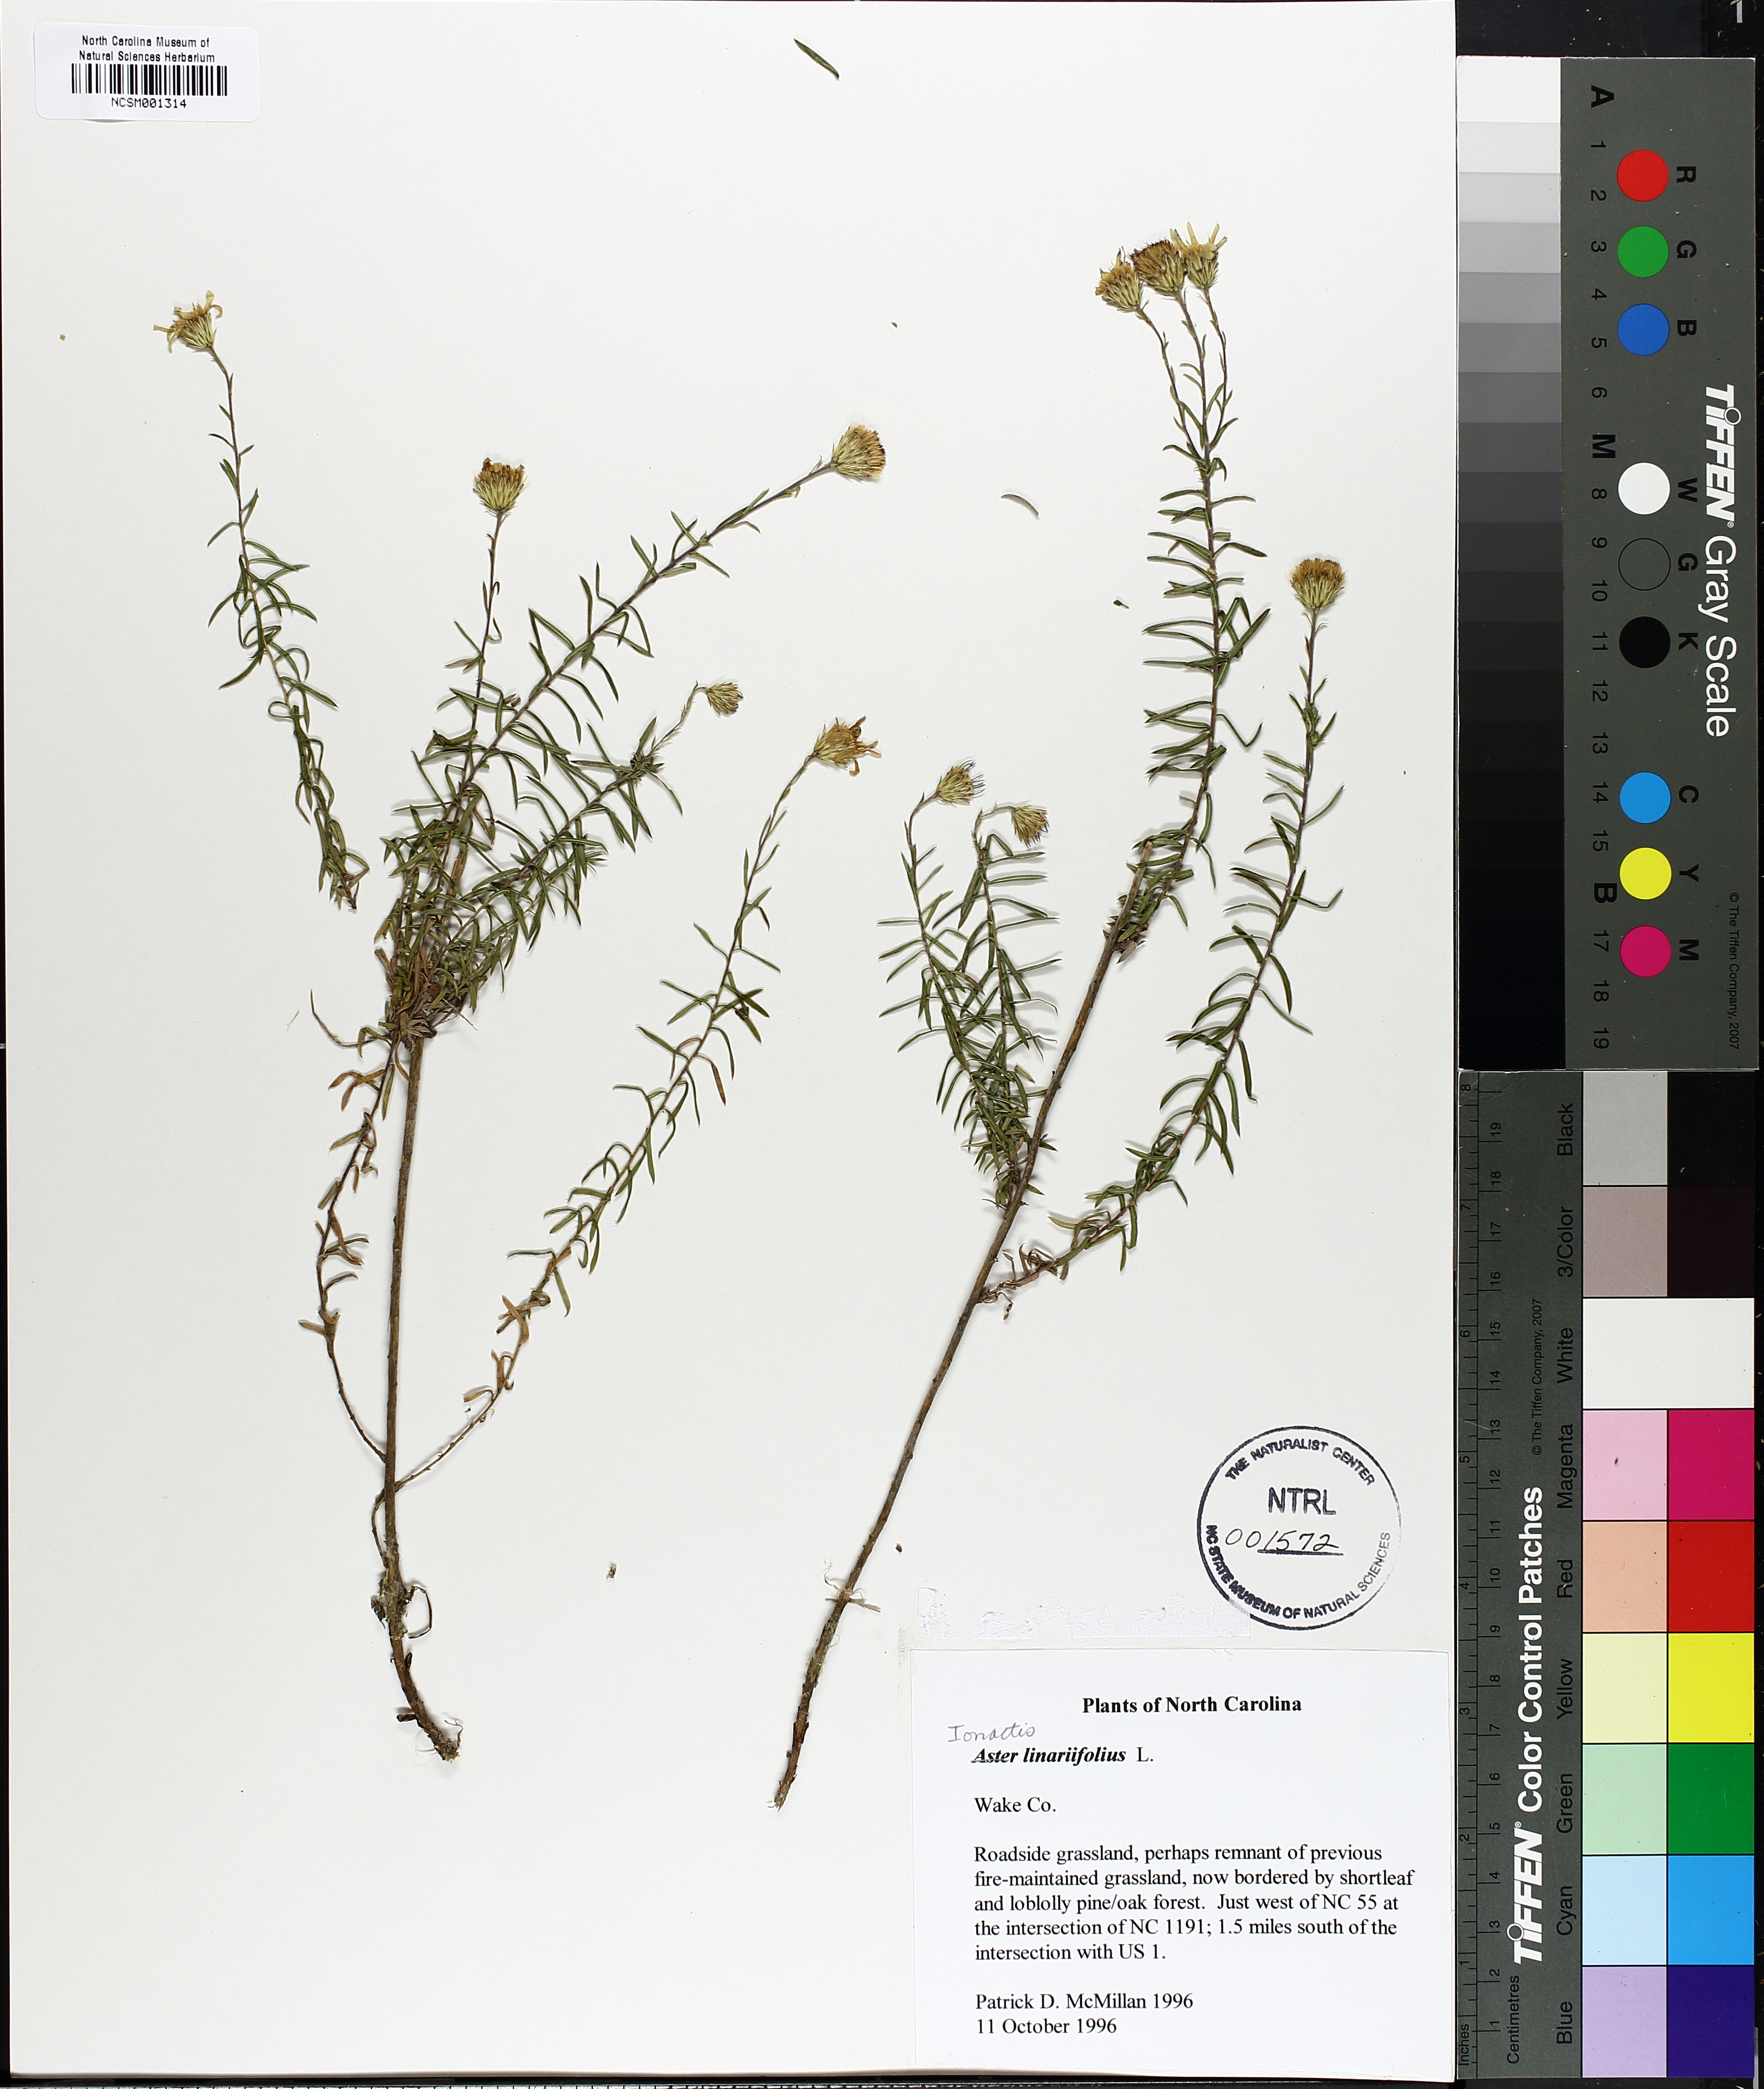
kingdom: Plantae
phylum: Tracheophyta
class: Magnoliopsida
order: Asterales
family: Asteraceae
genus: Ionactis
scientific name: Ionactis linariifolia
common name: Flax-leaf aster
